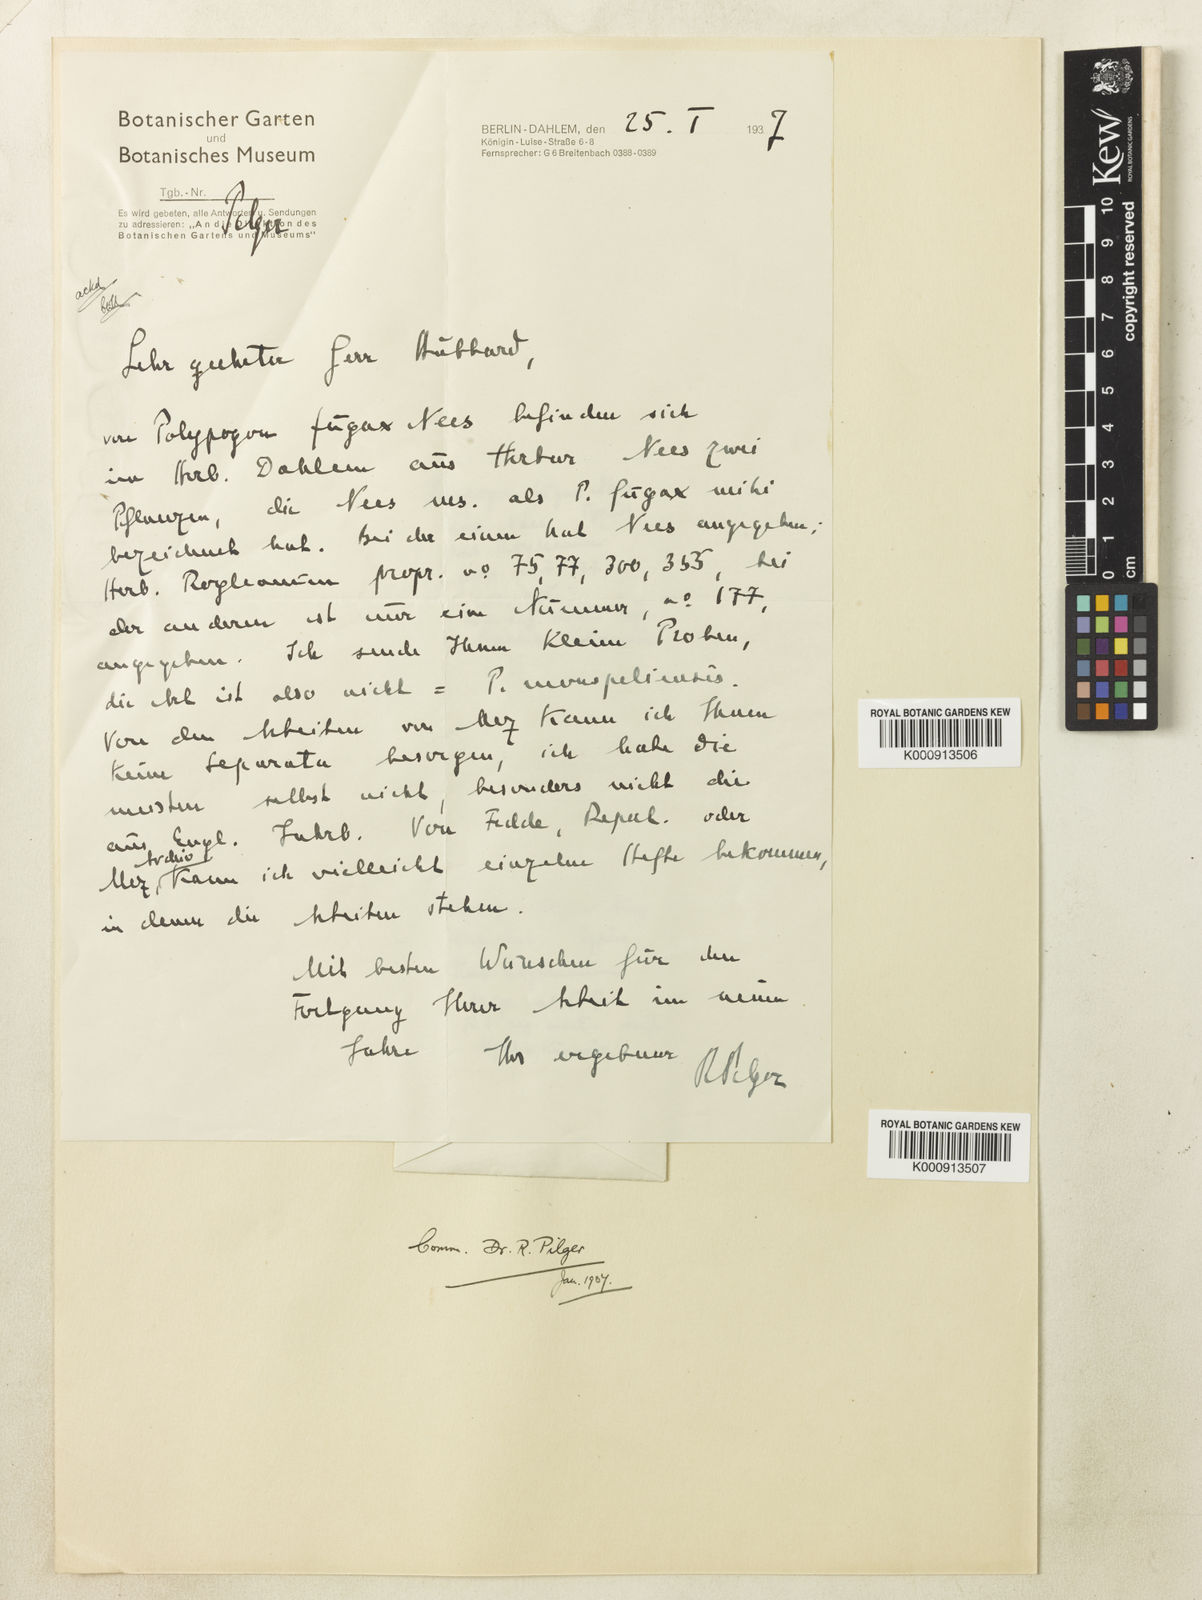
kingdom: Plantae
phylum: Tracheophyta
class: Liliopsida
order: Poales
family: Poaceae
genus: Polypogon
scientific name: Polypogon fugax
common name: Asia minor bluegrass
